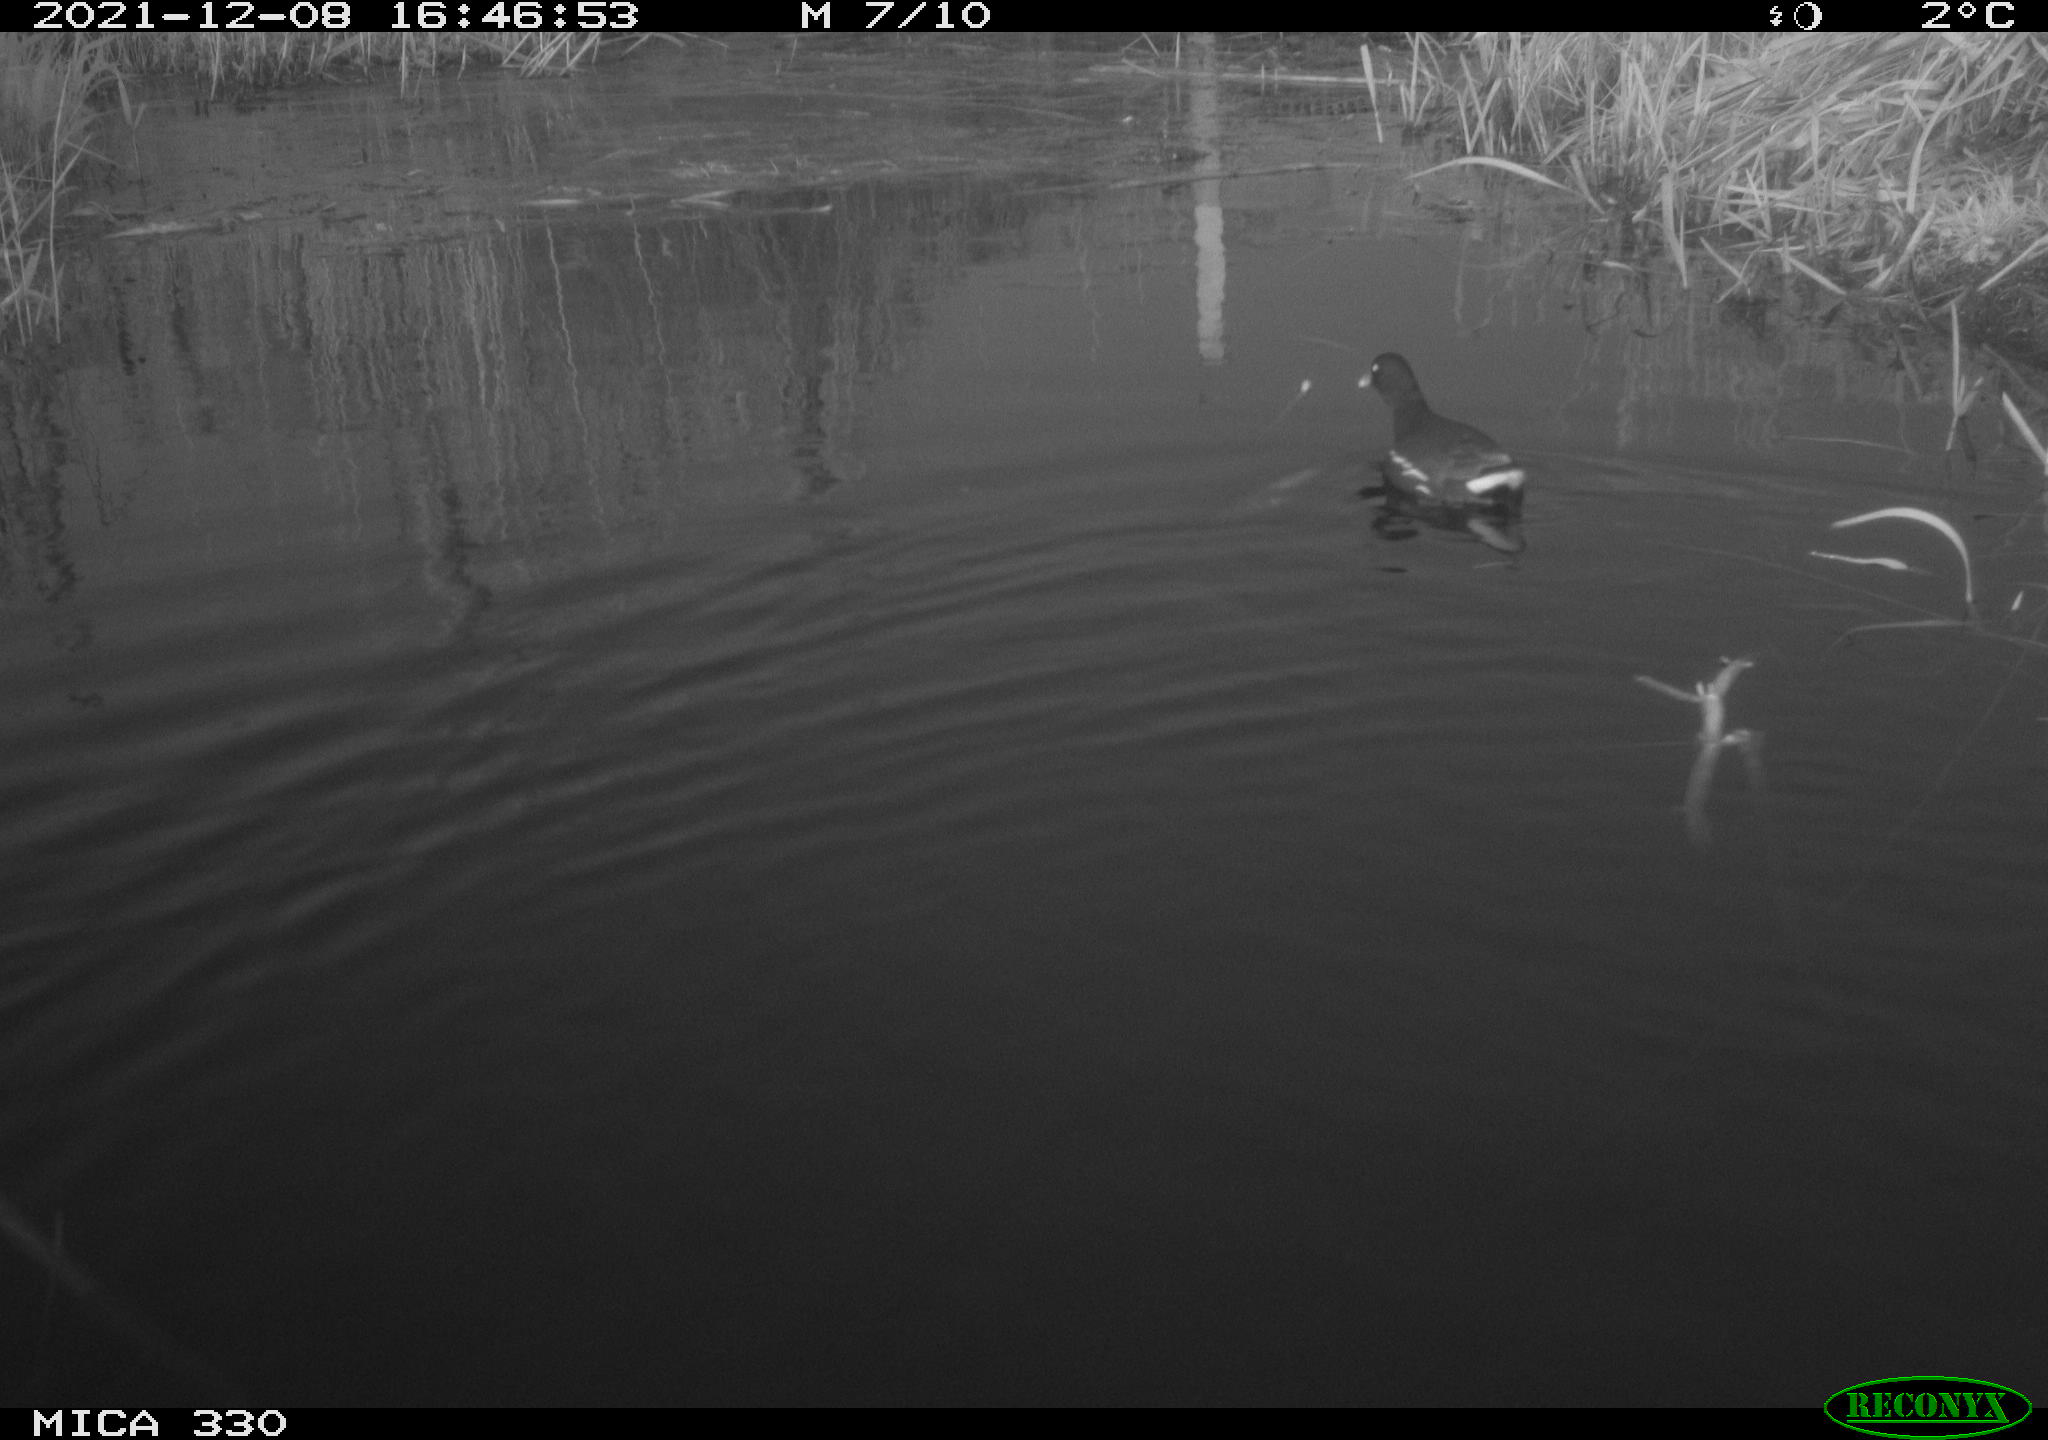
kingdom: Animalia
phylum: Chordata
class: Aves
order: Gruiformes
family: Rallidae
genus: Gallinula
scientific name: Gallinula chloropus
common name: Common moorhen
